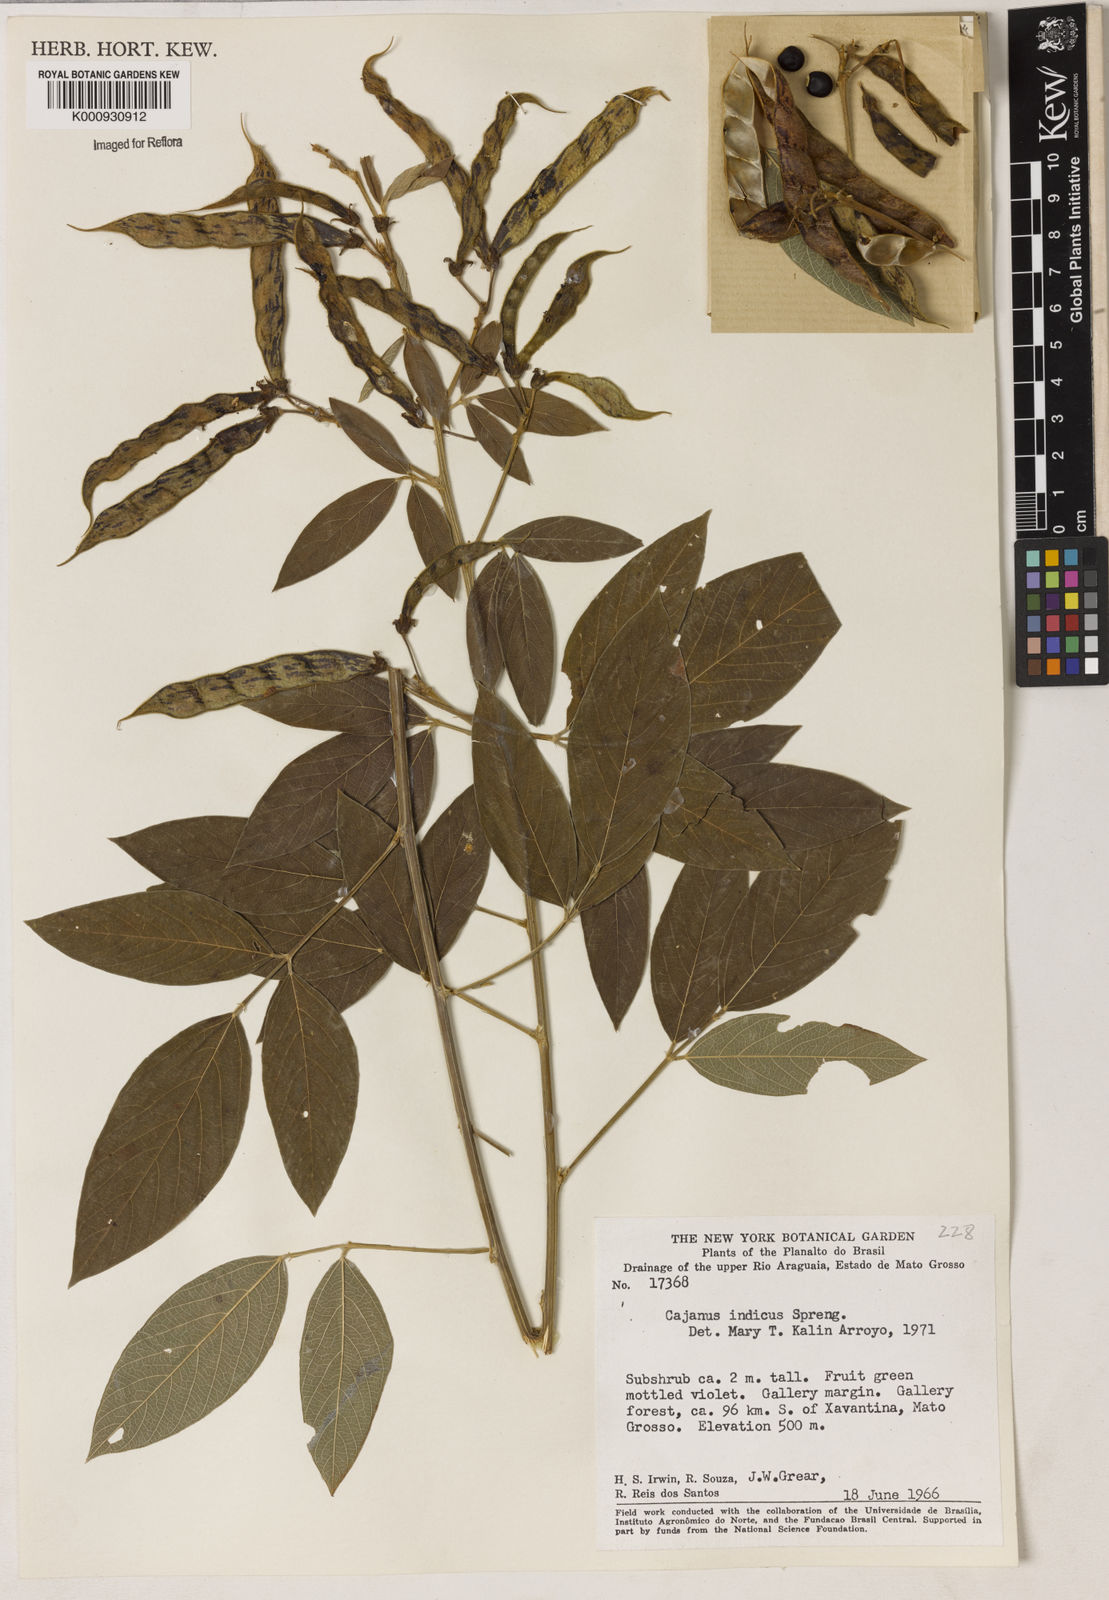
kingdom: Plantae
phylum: Tracheophyta
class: Magnoliopsida
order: Fabales
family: Fabaceae
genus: Cajanus
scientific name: Cajanus
